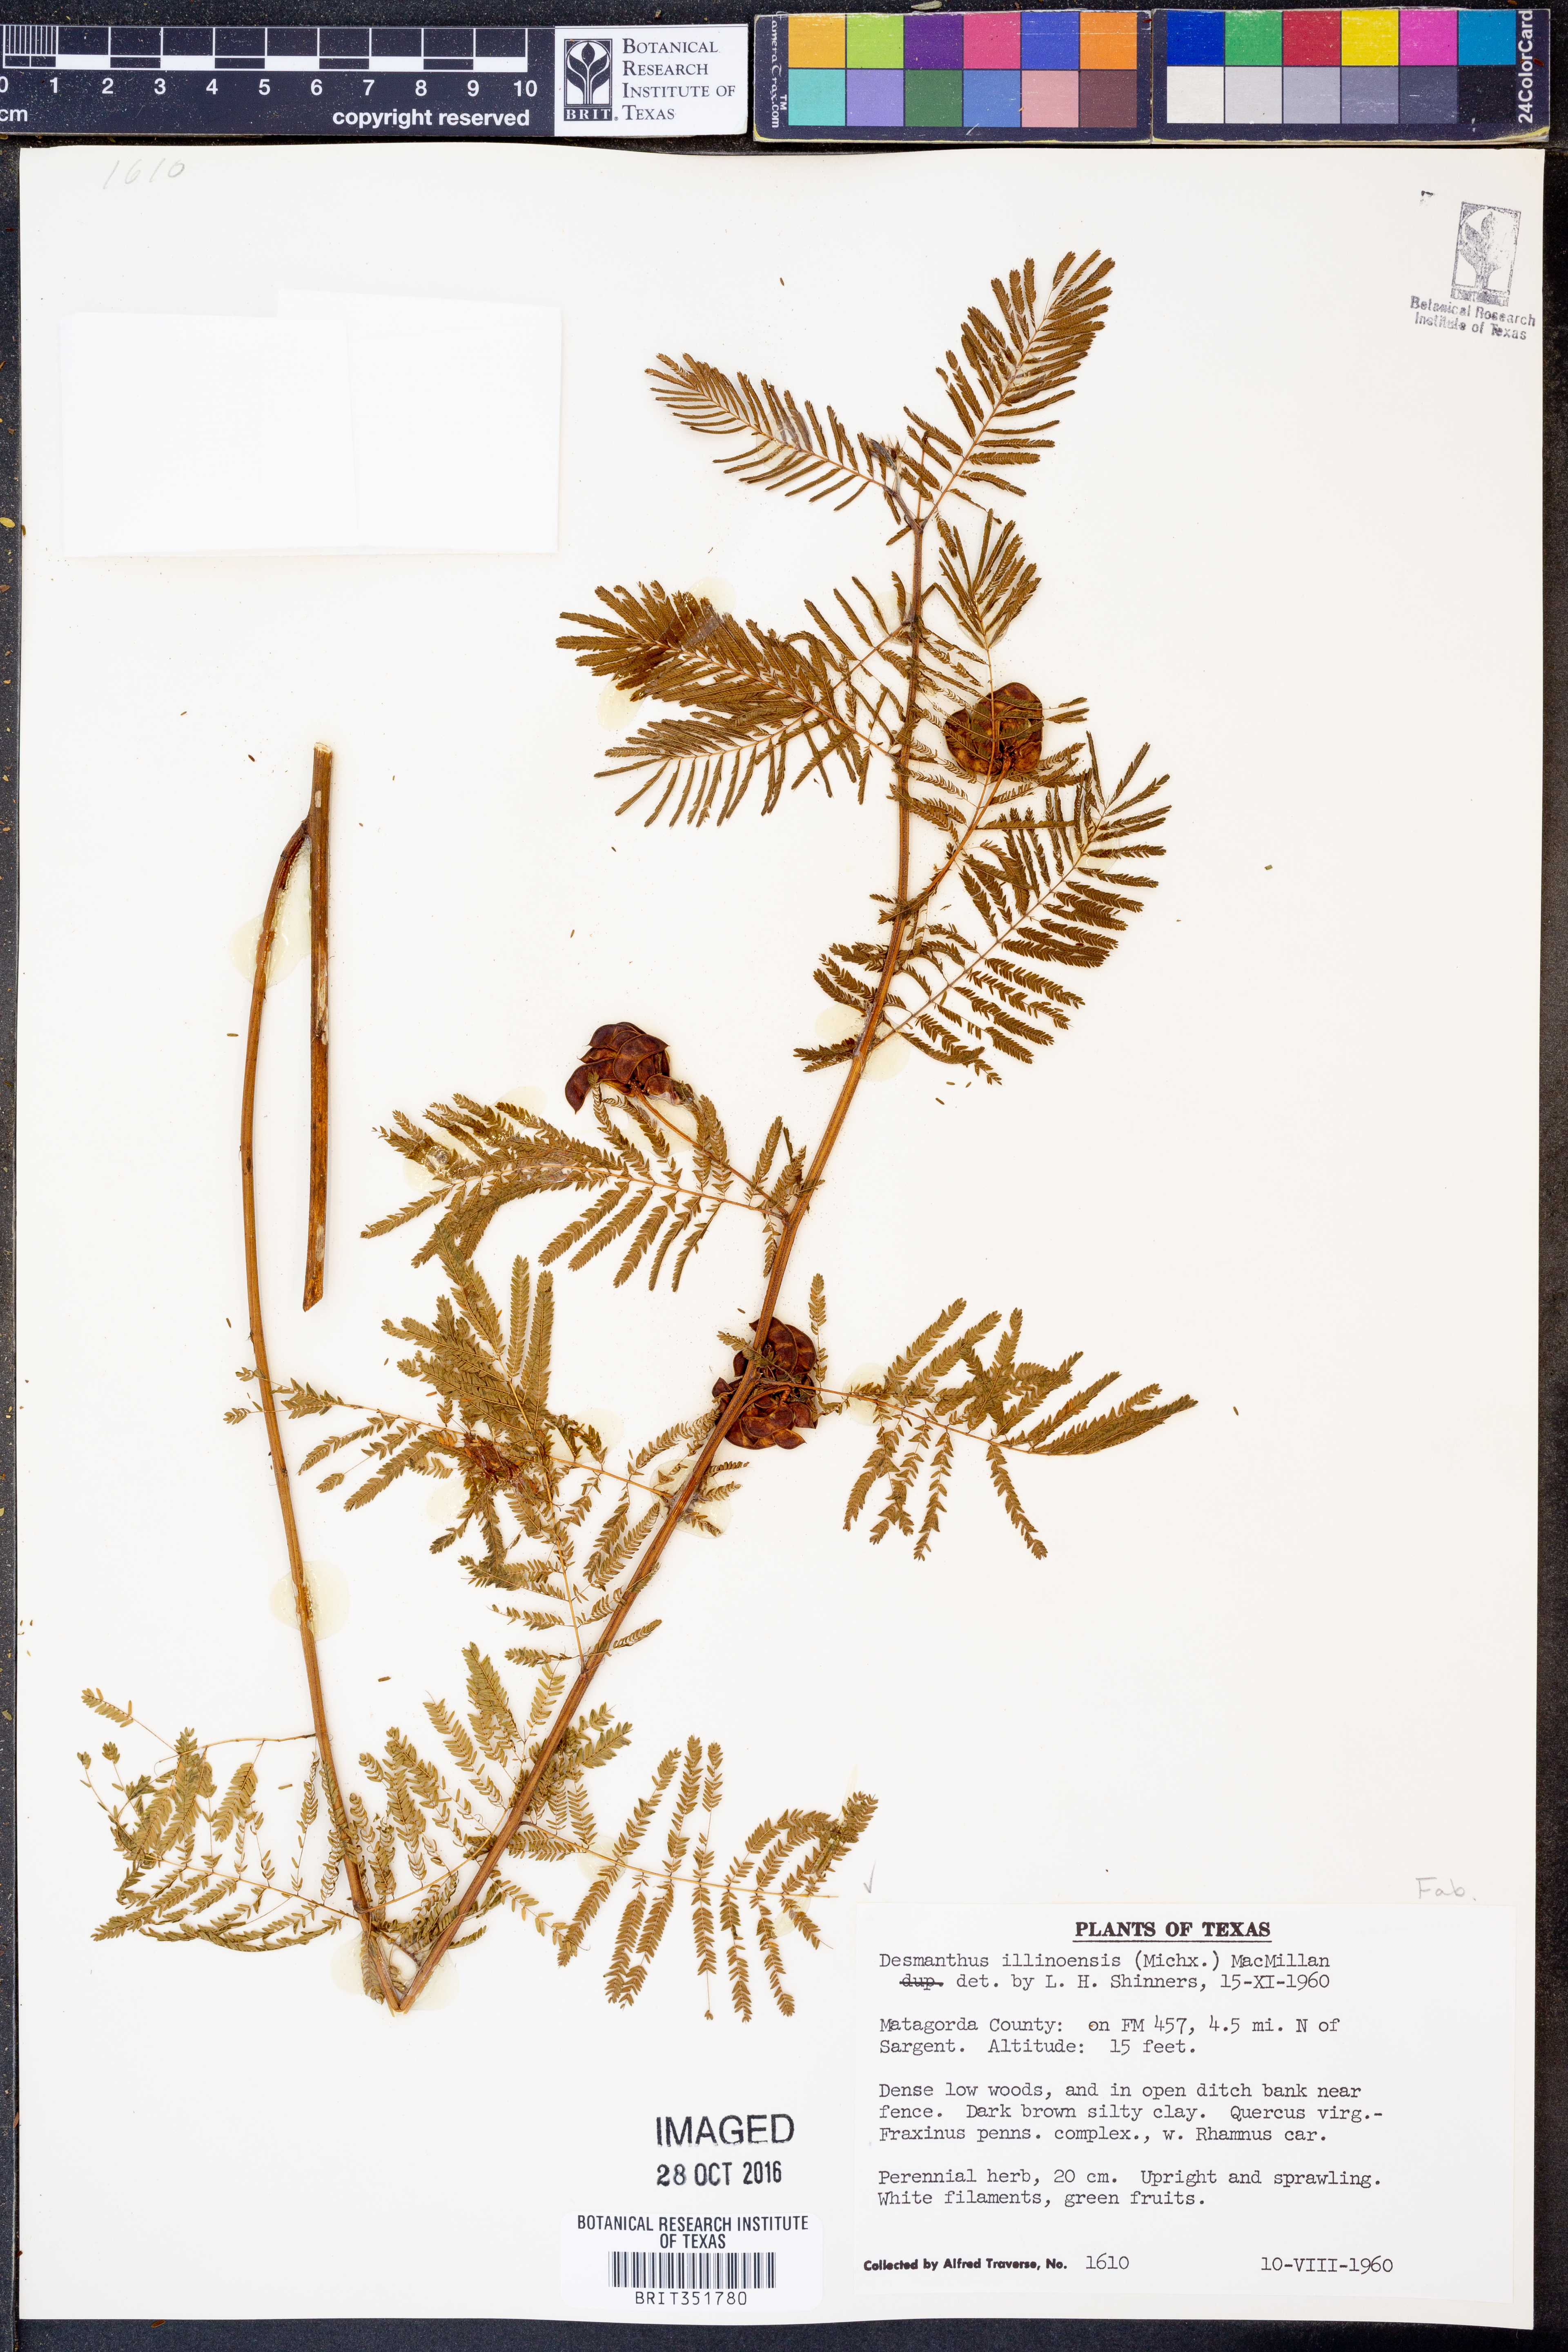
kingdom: Plantae
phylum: Tracheophyta
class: Magnoliopsida
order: Fabales
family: Fabaceae
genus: Desmanthus
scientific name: Desmanthus illinoensis
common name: Illinois bundle-flower
